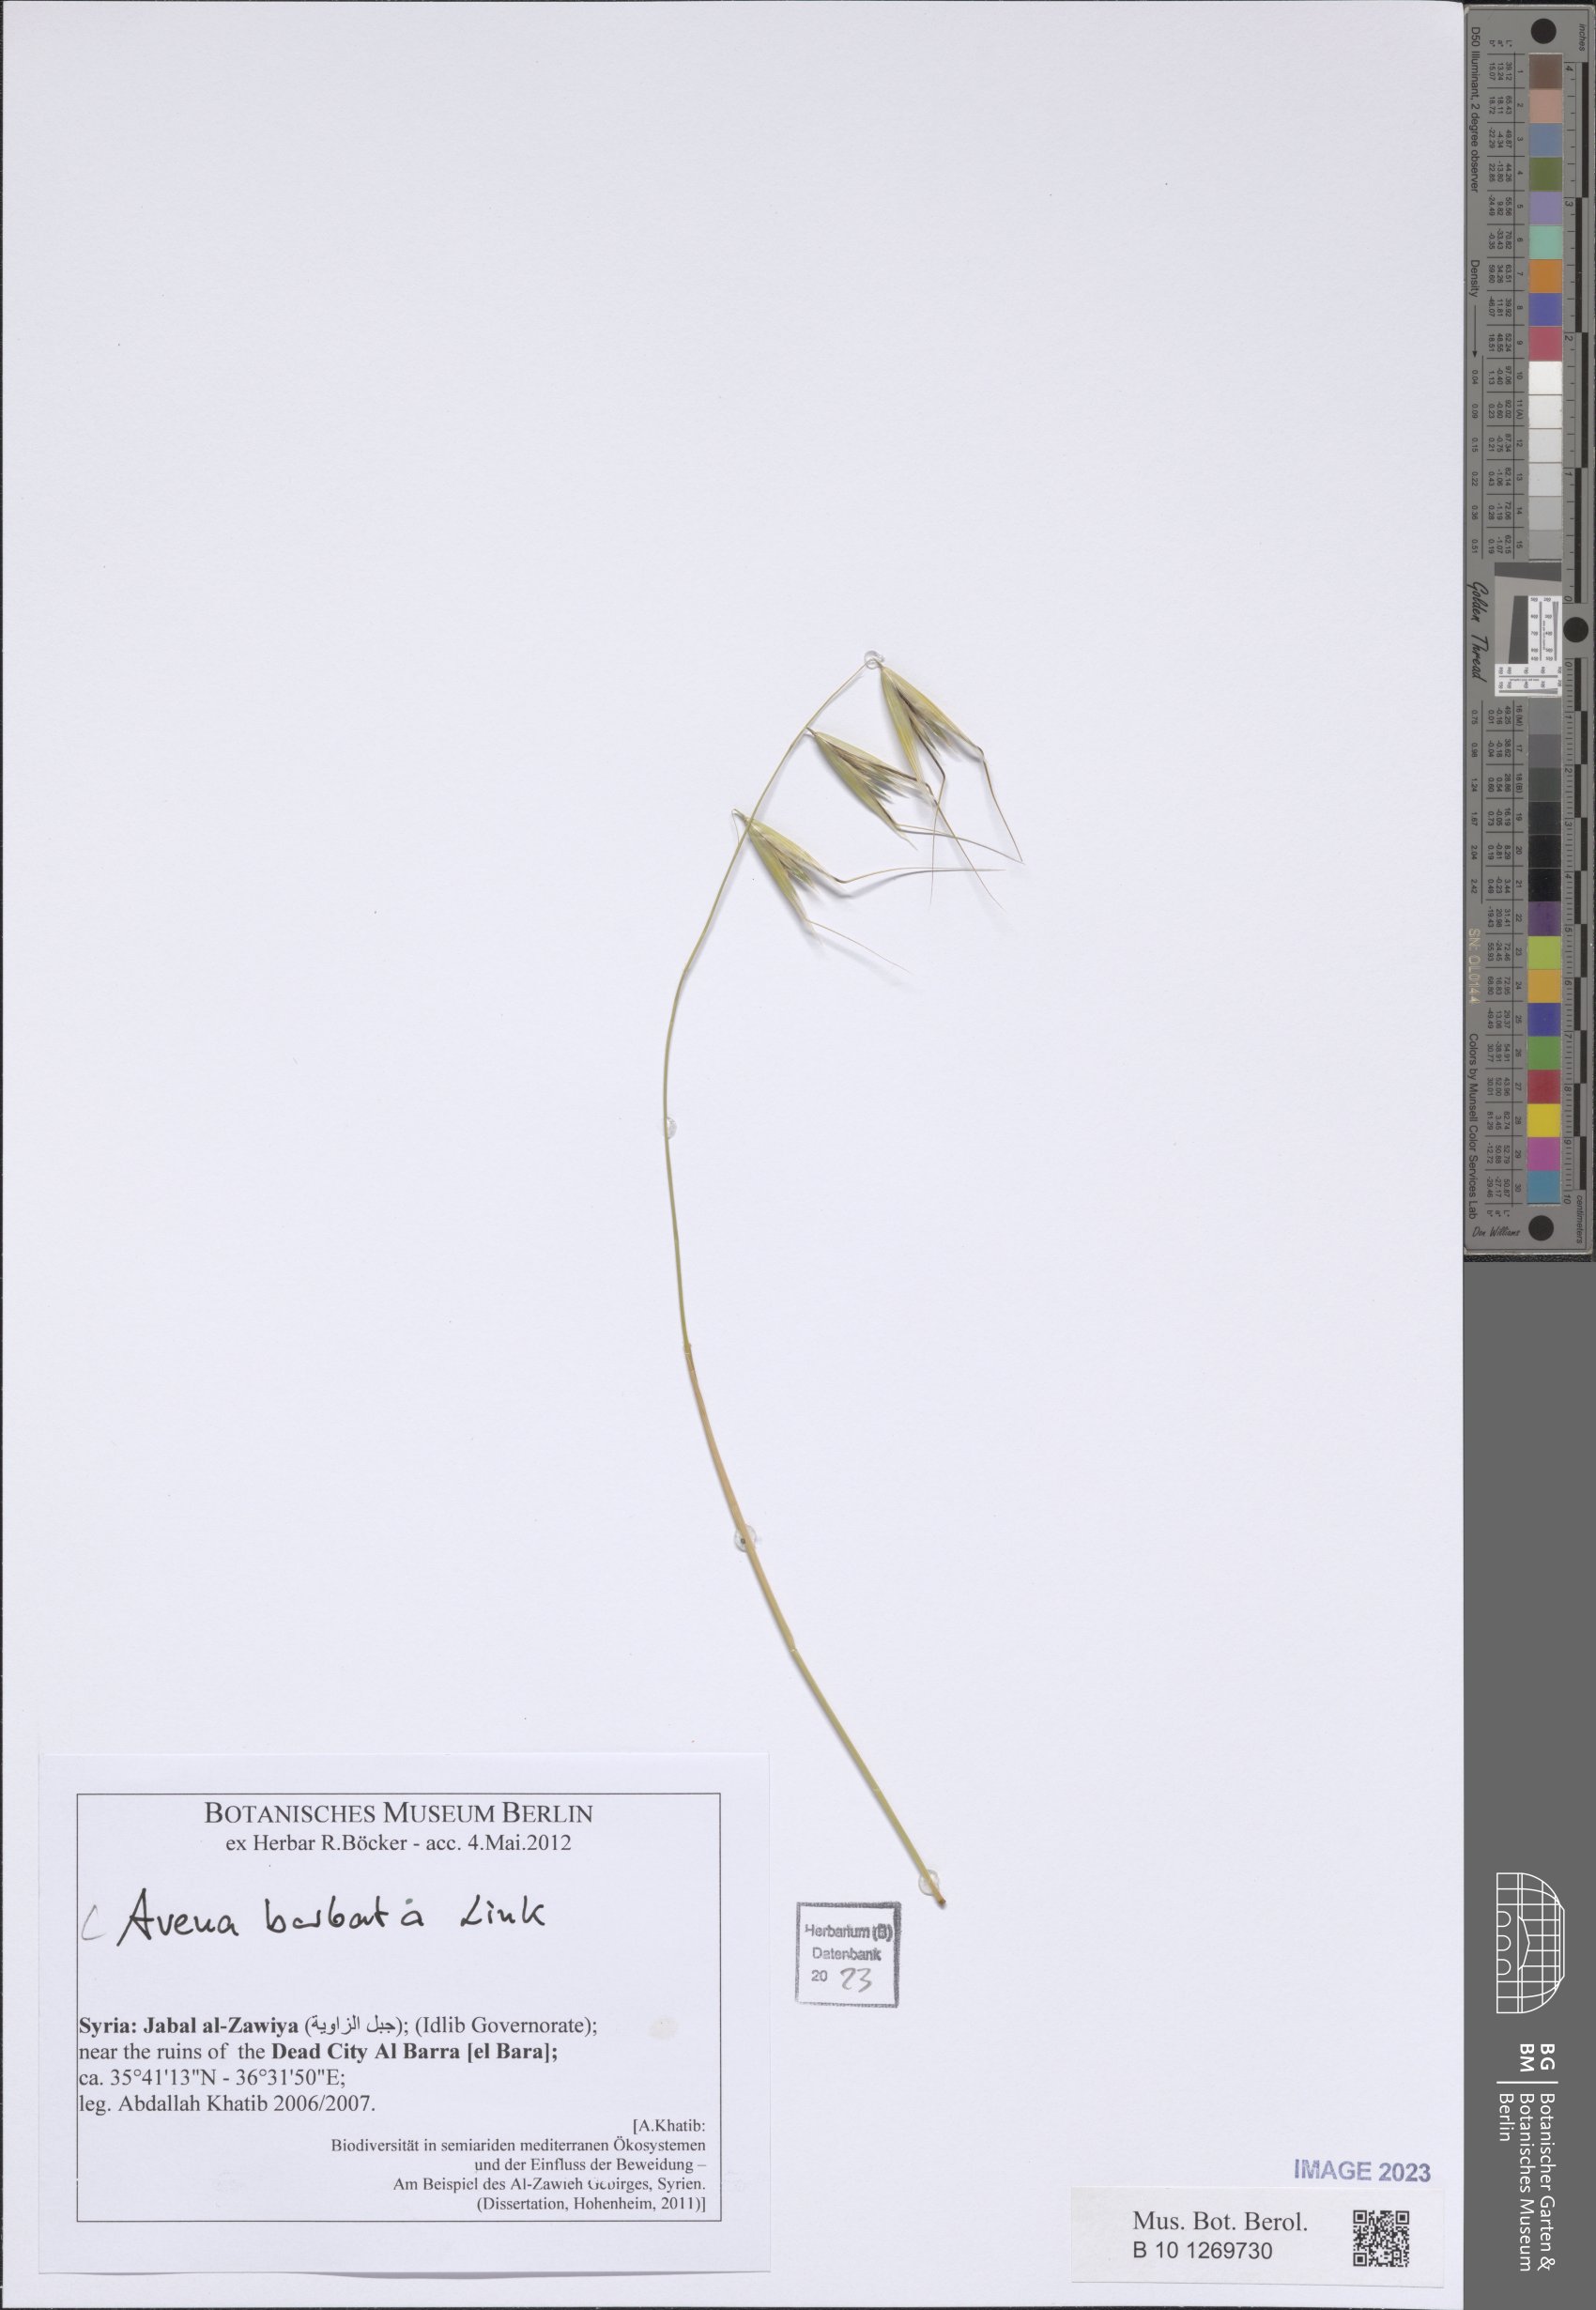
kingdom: Plantae
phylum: Tracheophyta
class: Liliopsida
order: Poales
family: Poaceae
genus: Avena
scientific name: Avena barbata
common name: Slender oat
